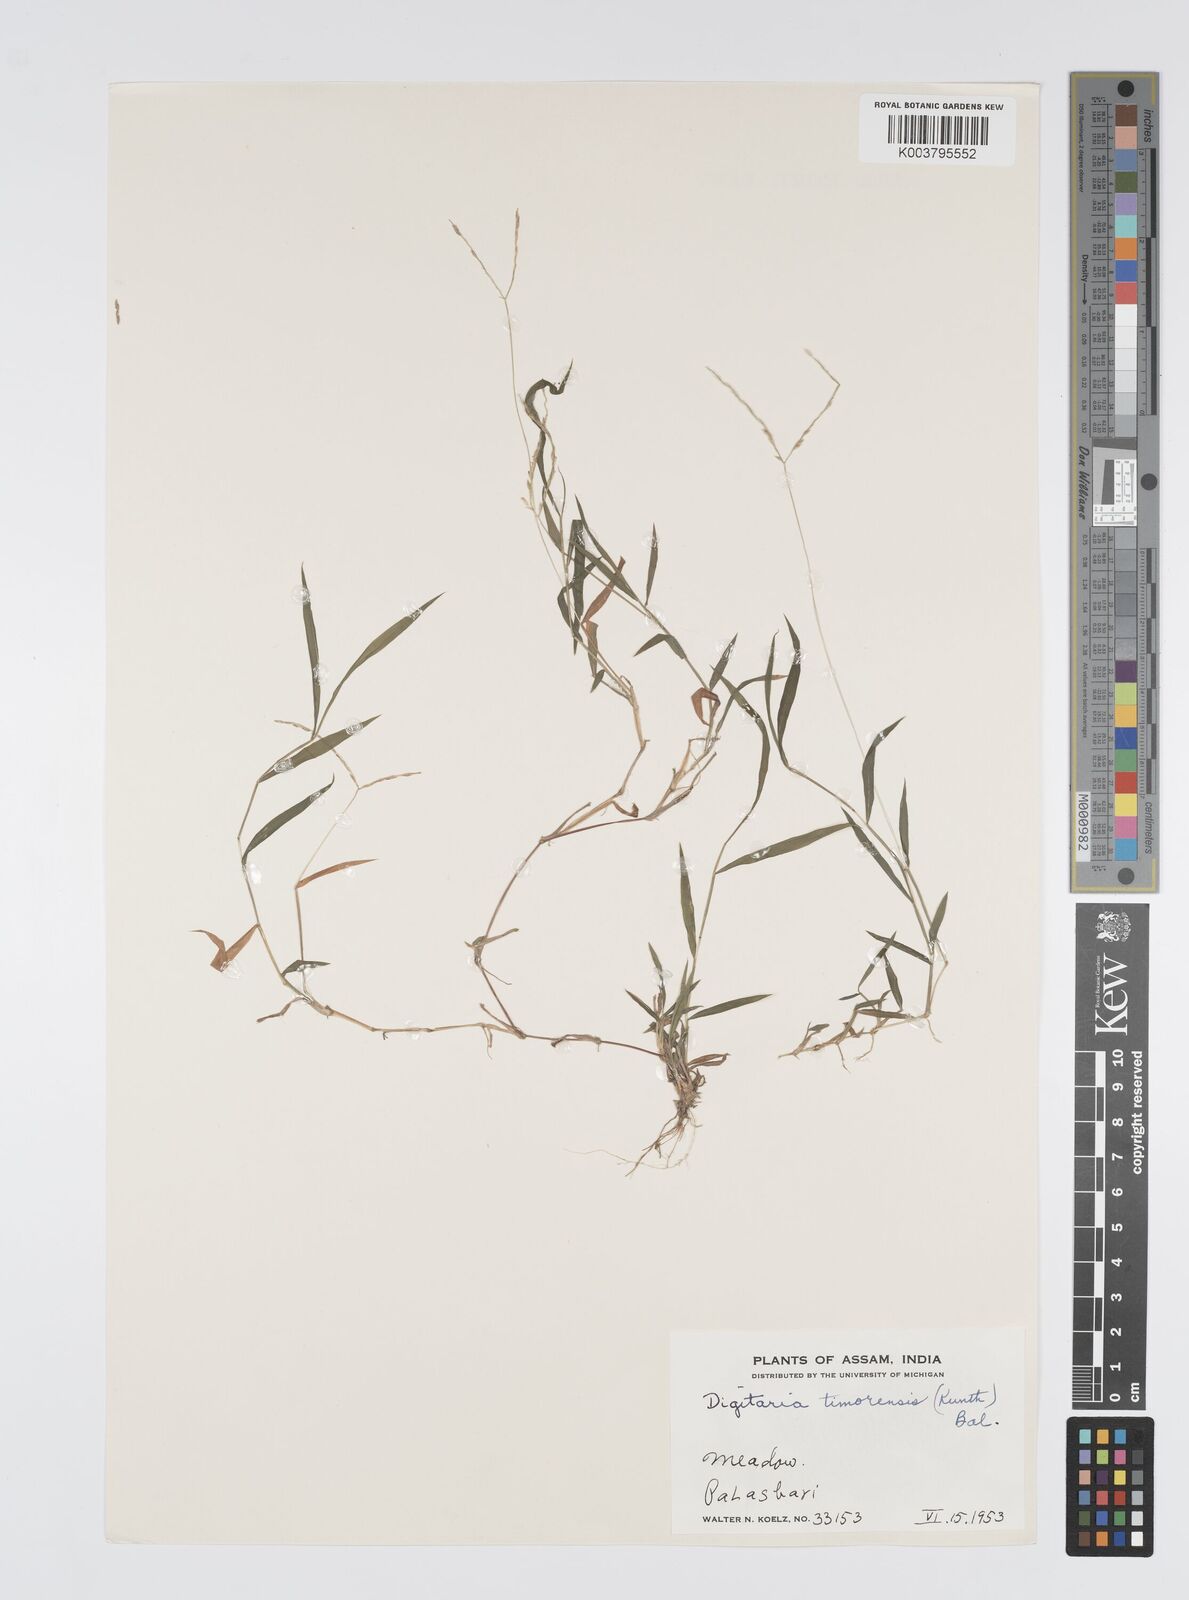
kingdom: Plantae
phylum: Tracheophyta
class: Liliopsida
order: Poales
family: Poaceae
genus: Digitaria
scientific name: Digitaria radicosa
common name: Trailing crabgrass
